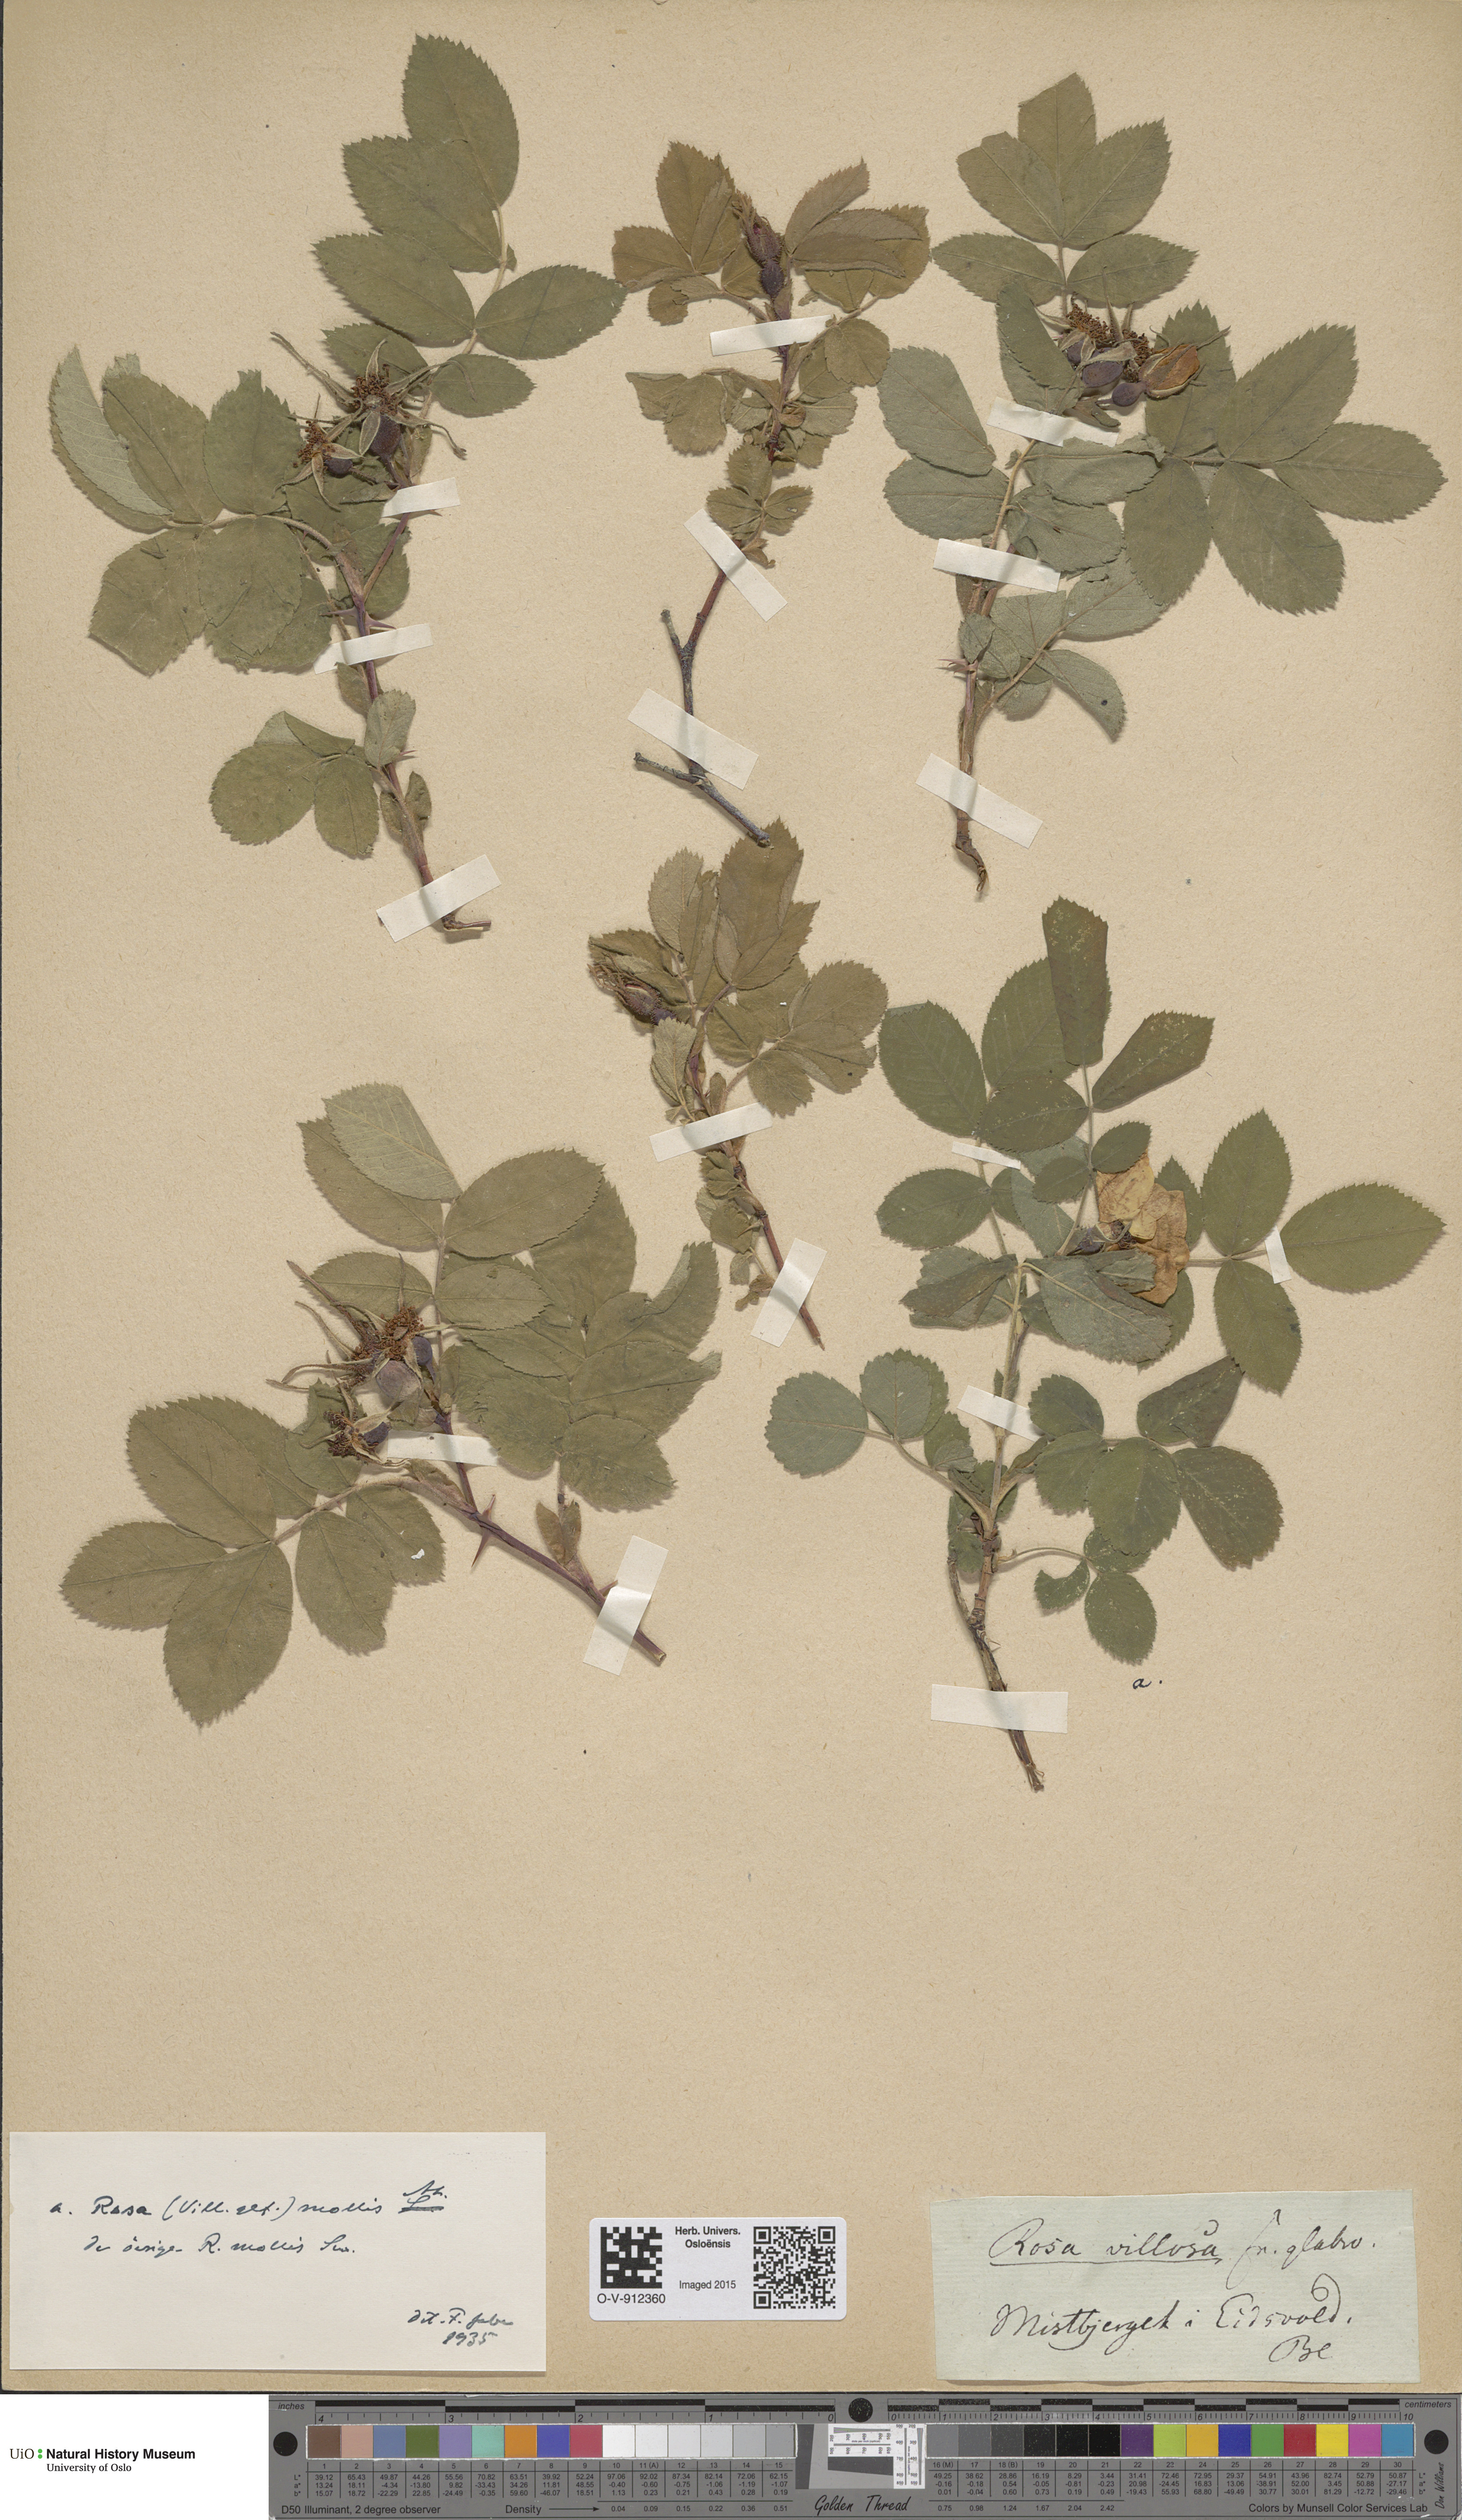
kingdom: Plantae
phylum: Tracheophyta
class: Magnoliopsida
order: Rosales
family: Rosaceae
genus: Rosa
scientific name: Rosa mollis
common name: Rose
